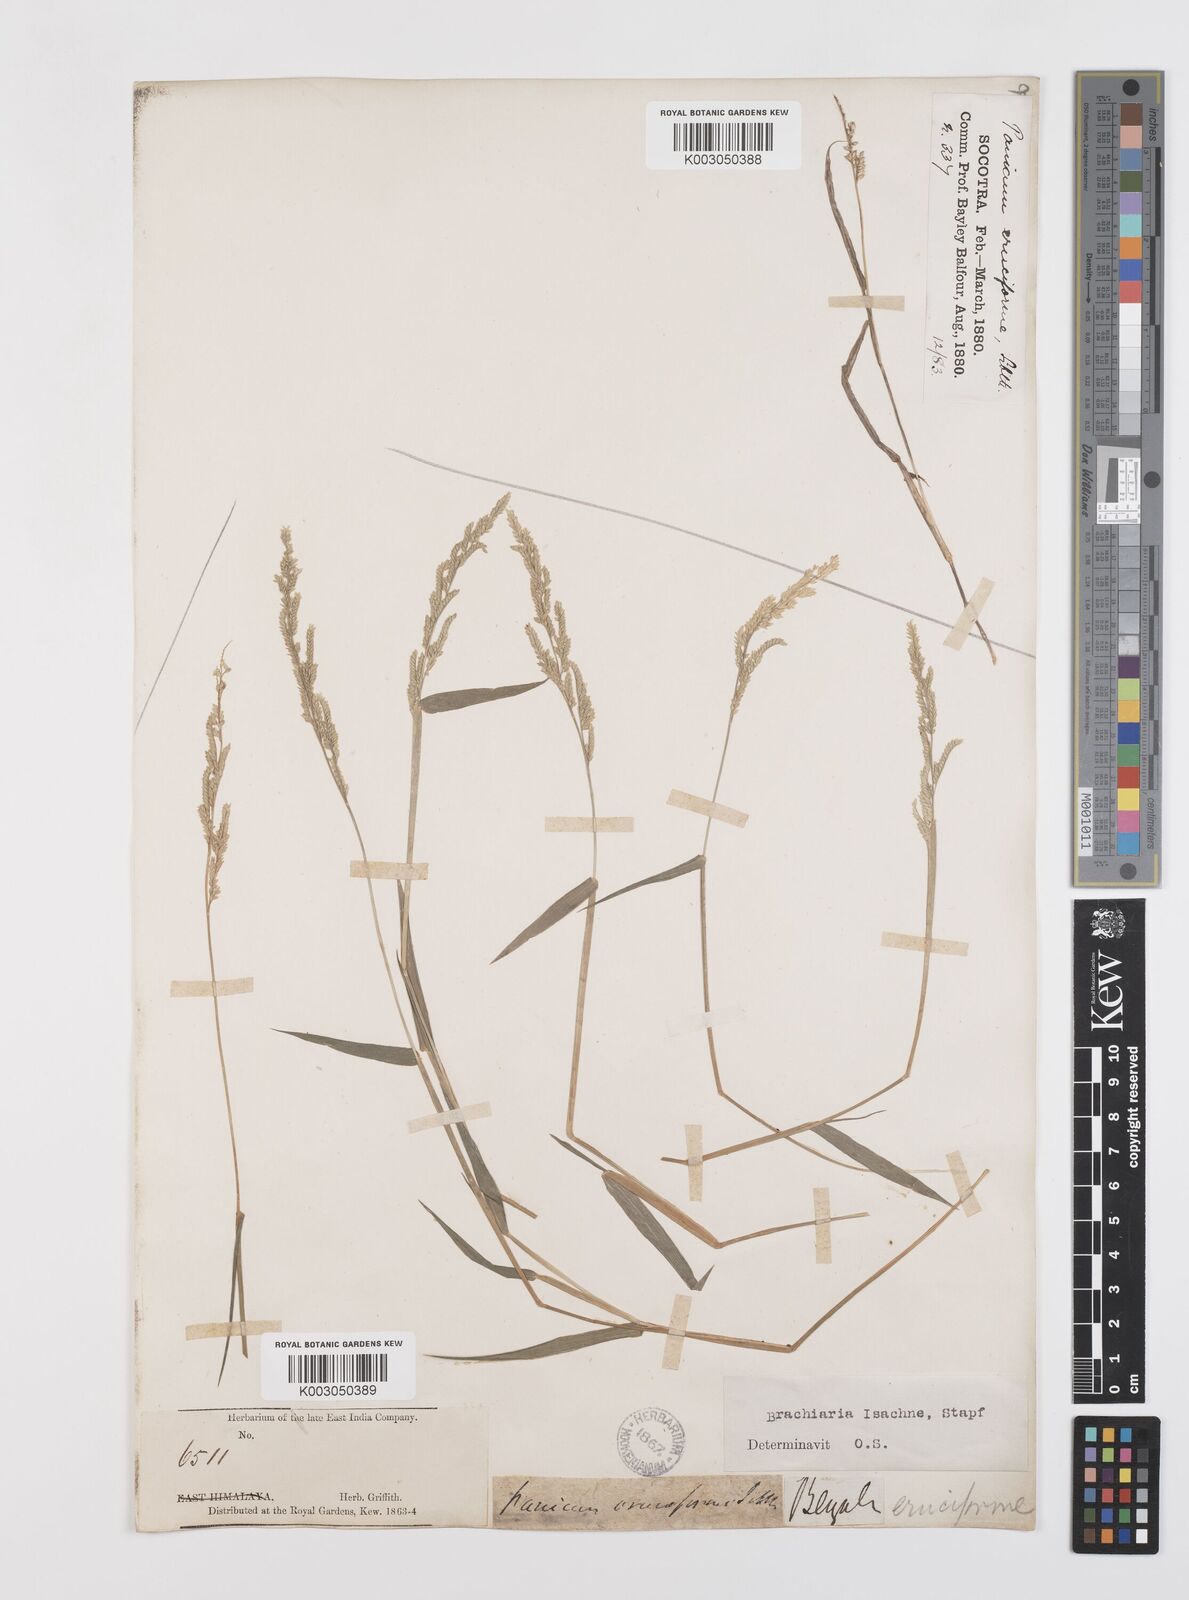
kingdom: Plantae
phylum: Tracheophyta
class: Liliopsida
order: Poales
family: Poaceae
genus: Moorochloa
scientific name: Moorochloa eruciformis
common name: Sweet signalgrass
